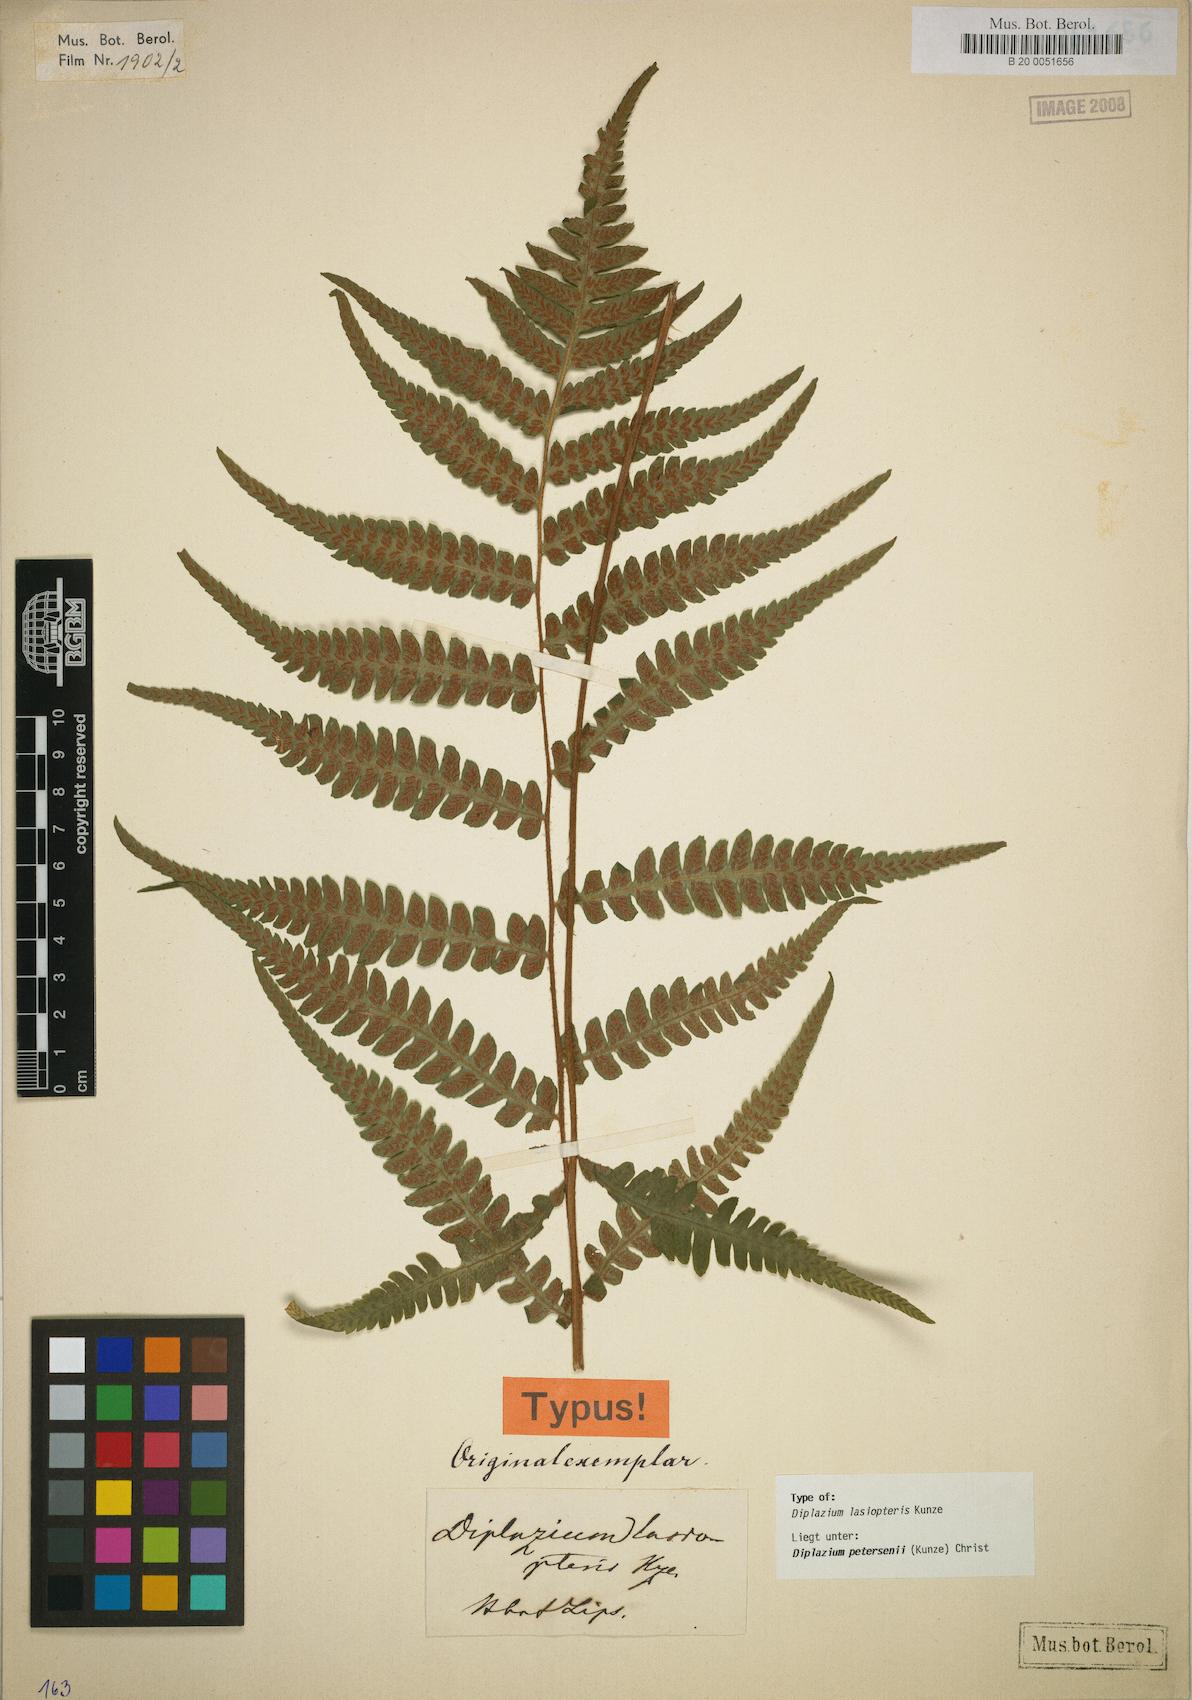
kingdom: Plantae
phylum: Tracheophyta
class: Polypodiopsida
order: Polypodiales
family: Athyriaceae
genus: Deparia
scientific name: Deparia petersenii
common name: Japanese false spleenwort
